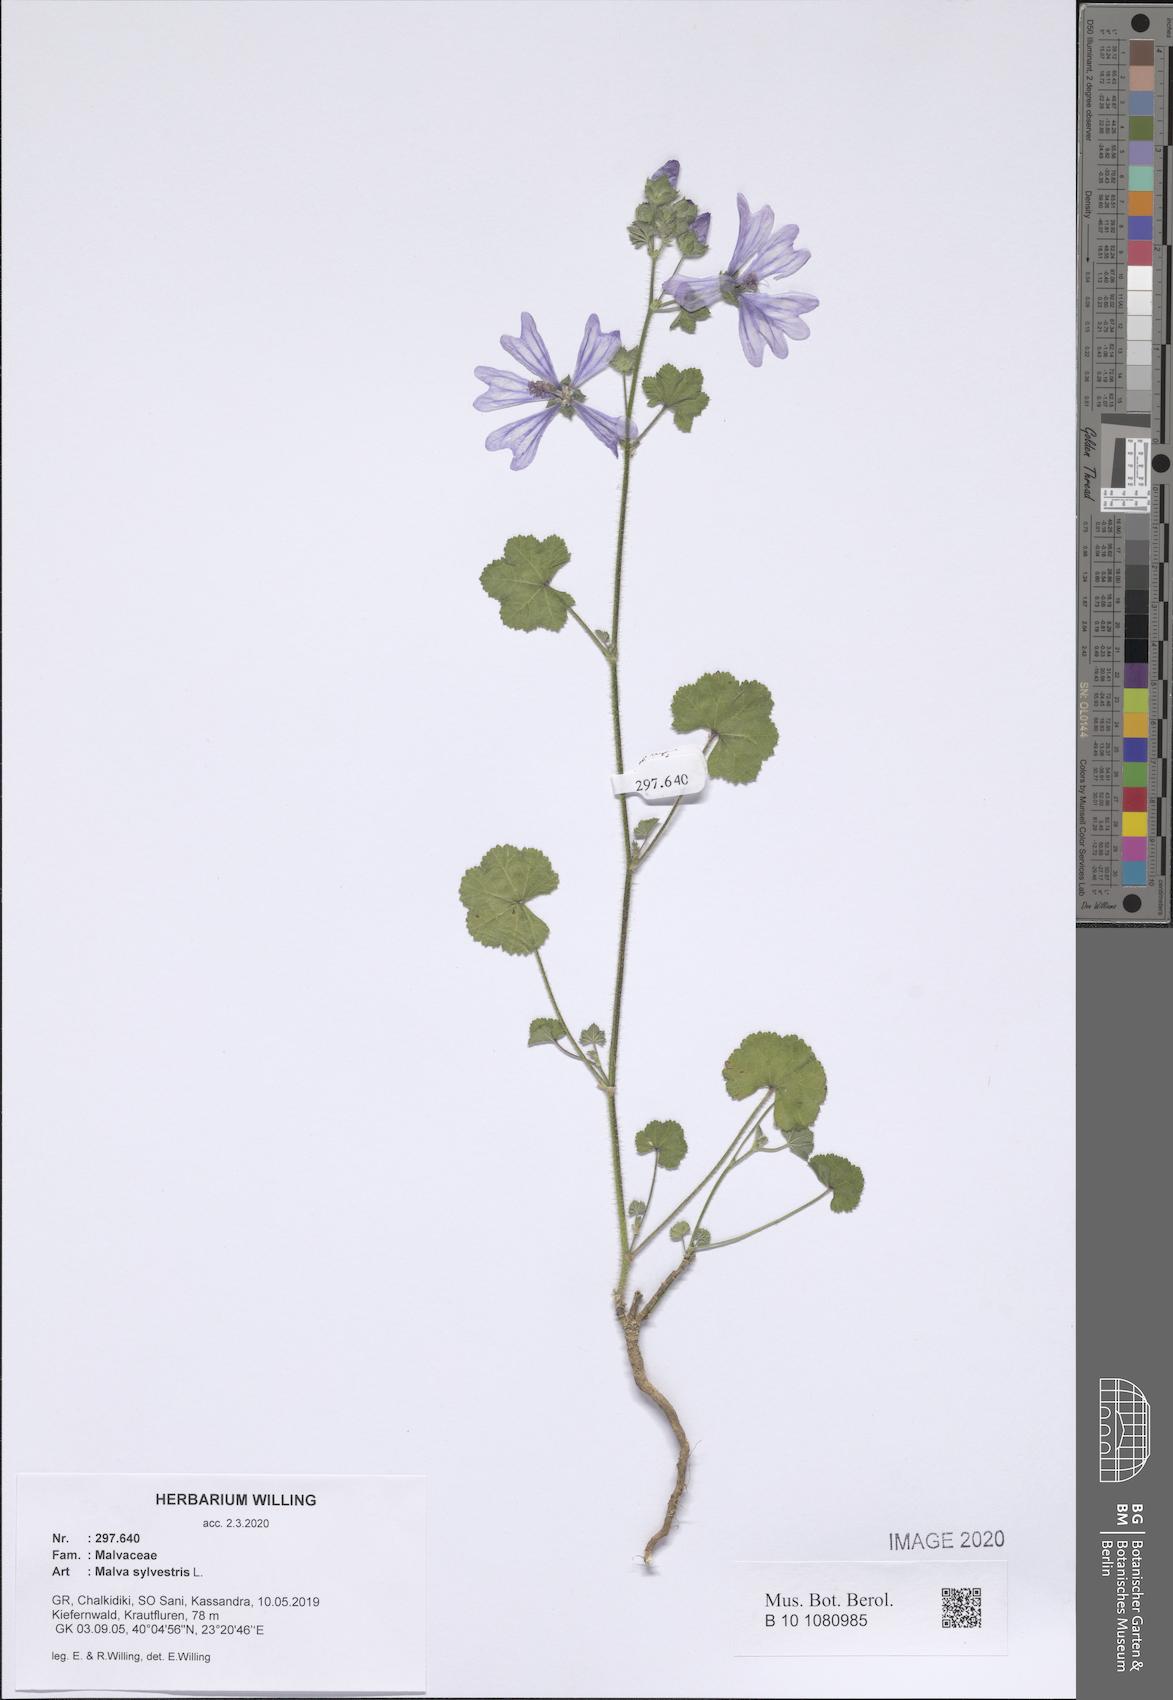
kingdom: Plantae
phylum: Tracheophyta
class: Magnoliopsida
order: Malvales
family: Malvaceae
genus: Malva
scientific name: Malva sylvestris
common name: Common mallow
